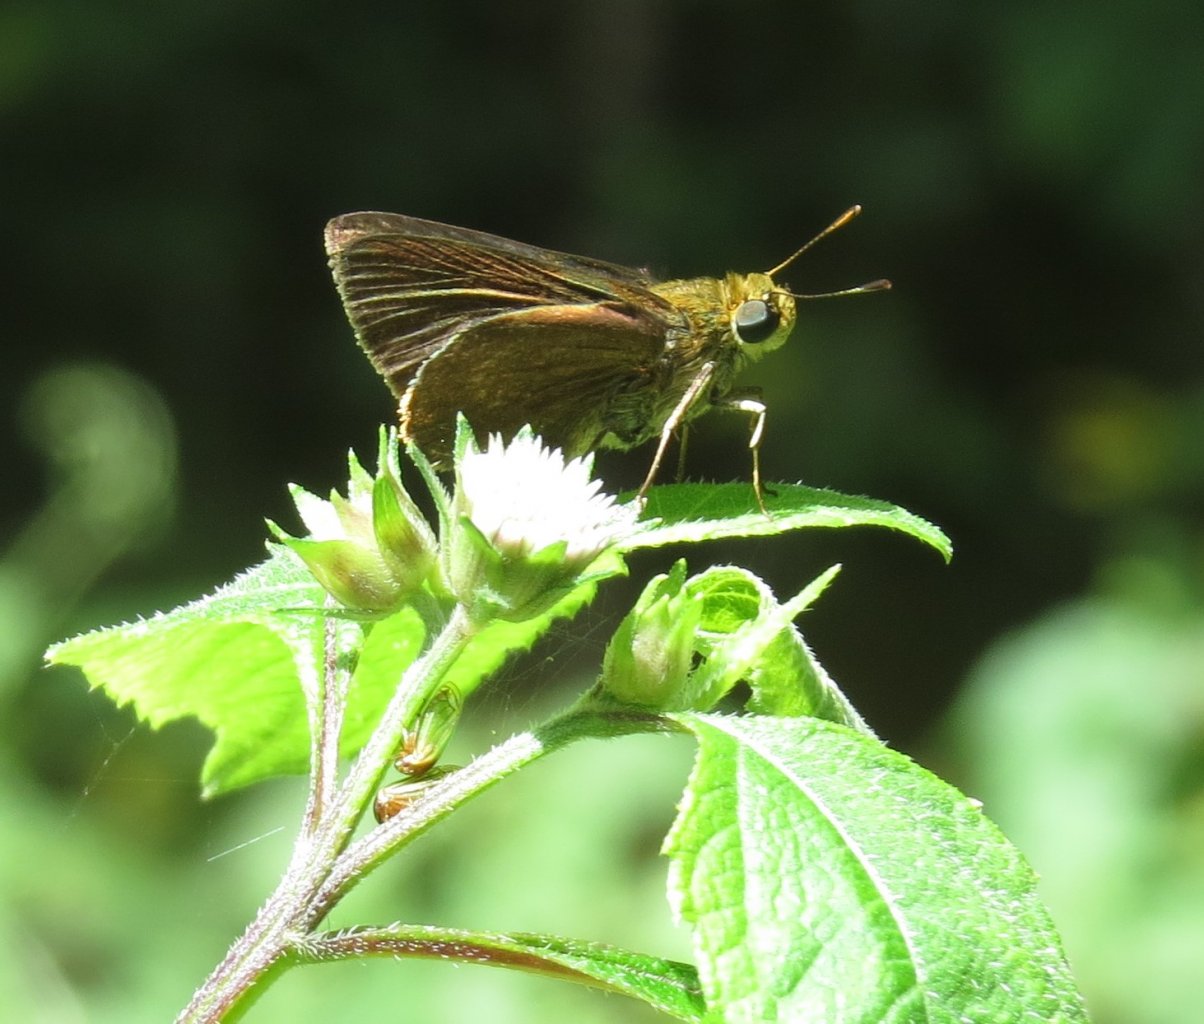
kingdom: Animalia
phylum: Arthropoda
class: Insecta
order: Lepidoptera
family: Hesperiidae
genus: Euphyes
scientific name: Euphyes vestris
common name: Dun Skipper
